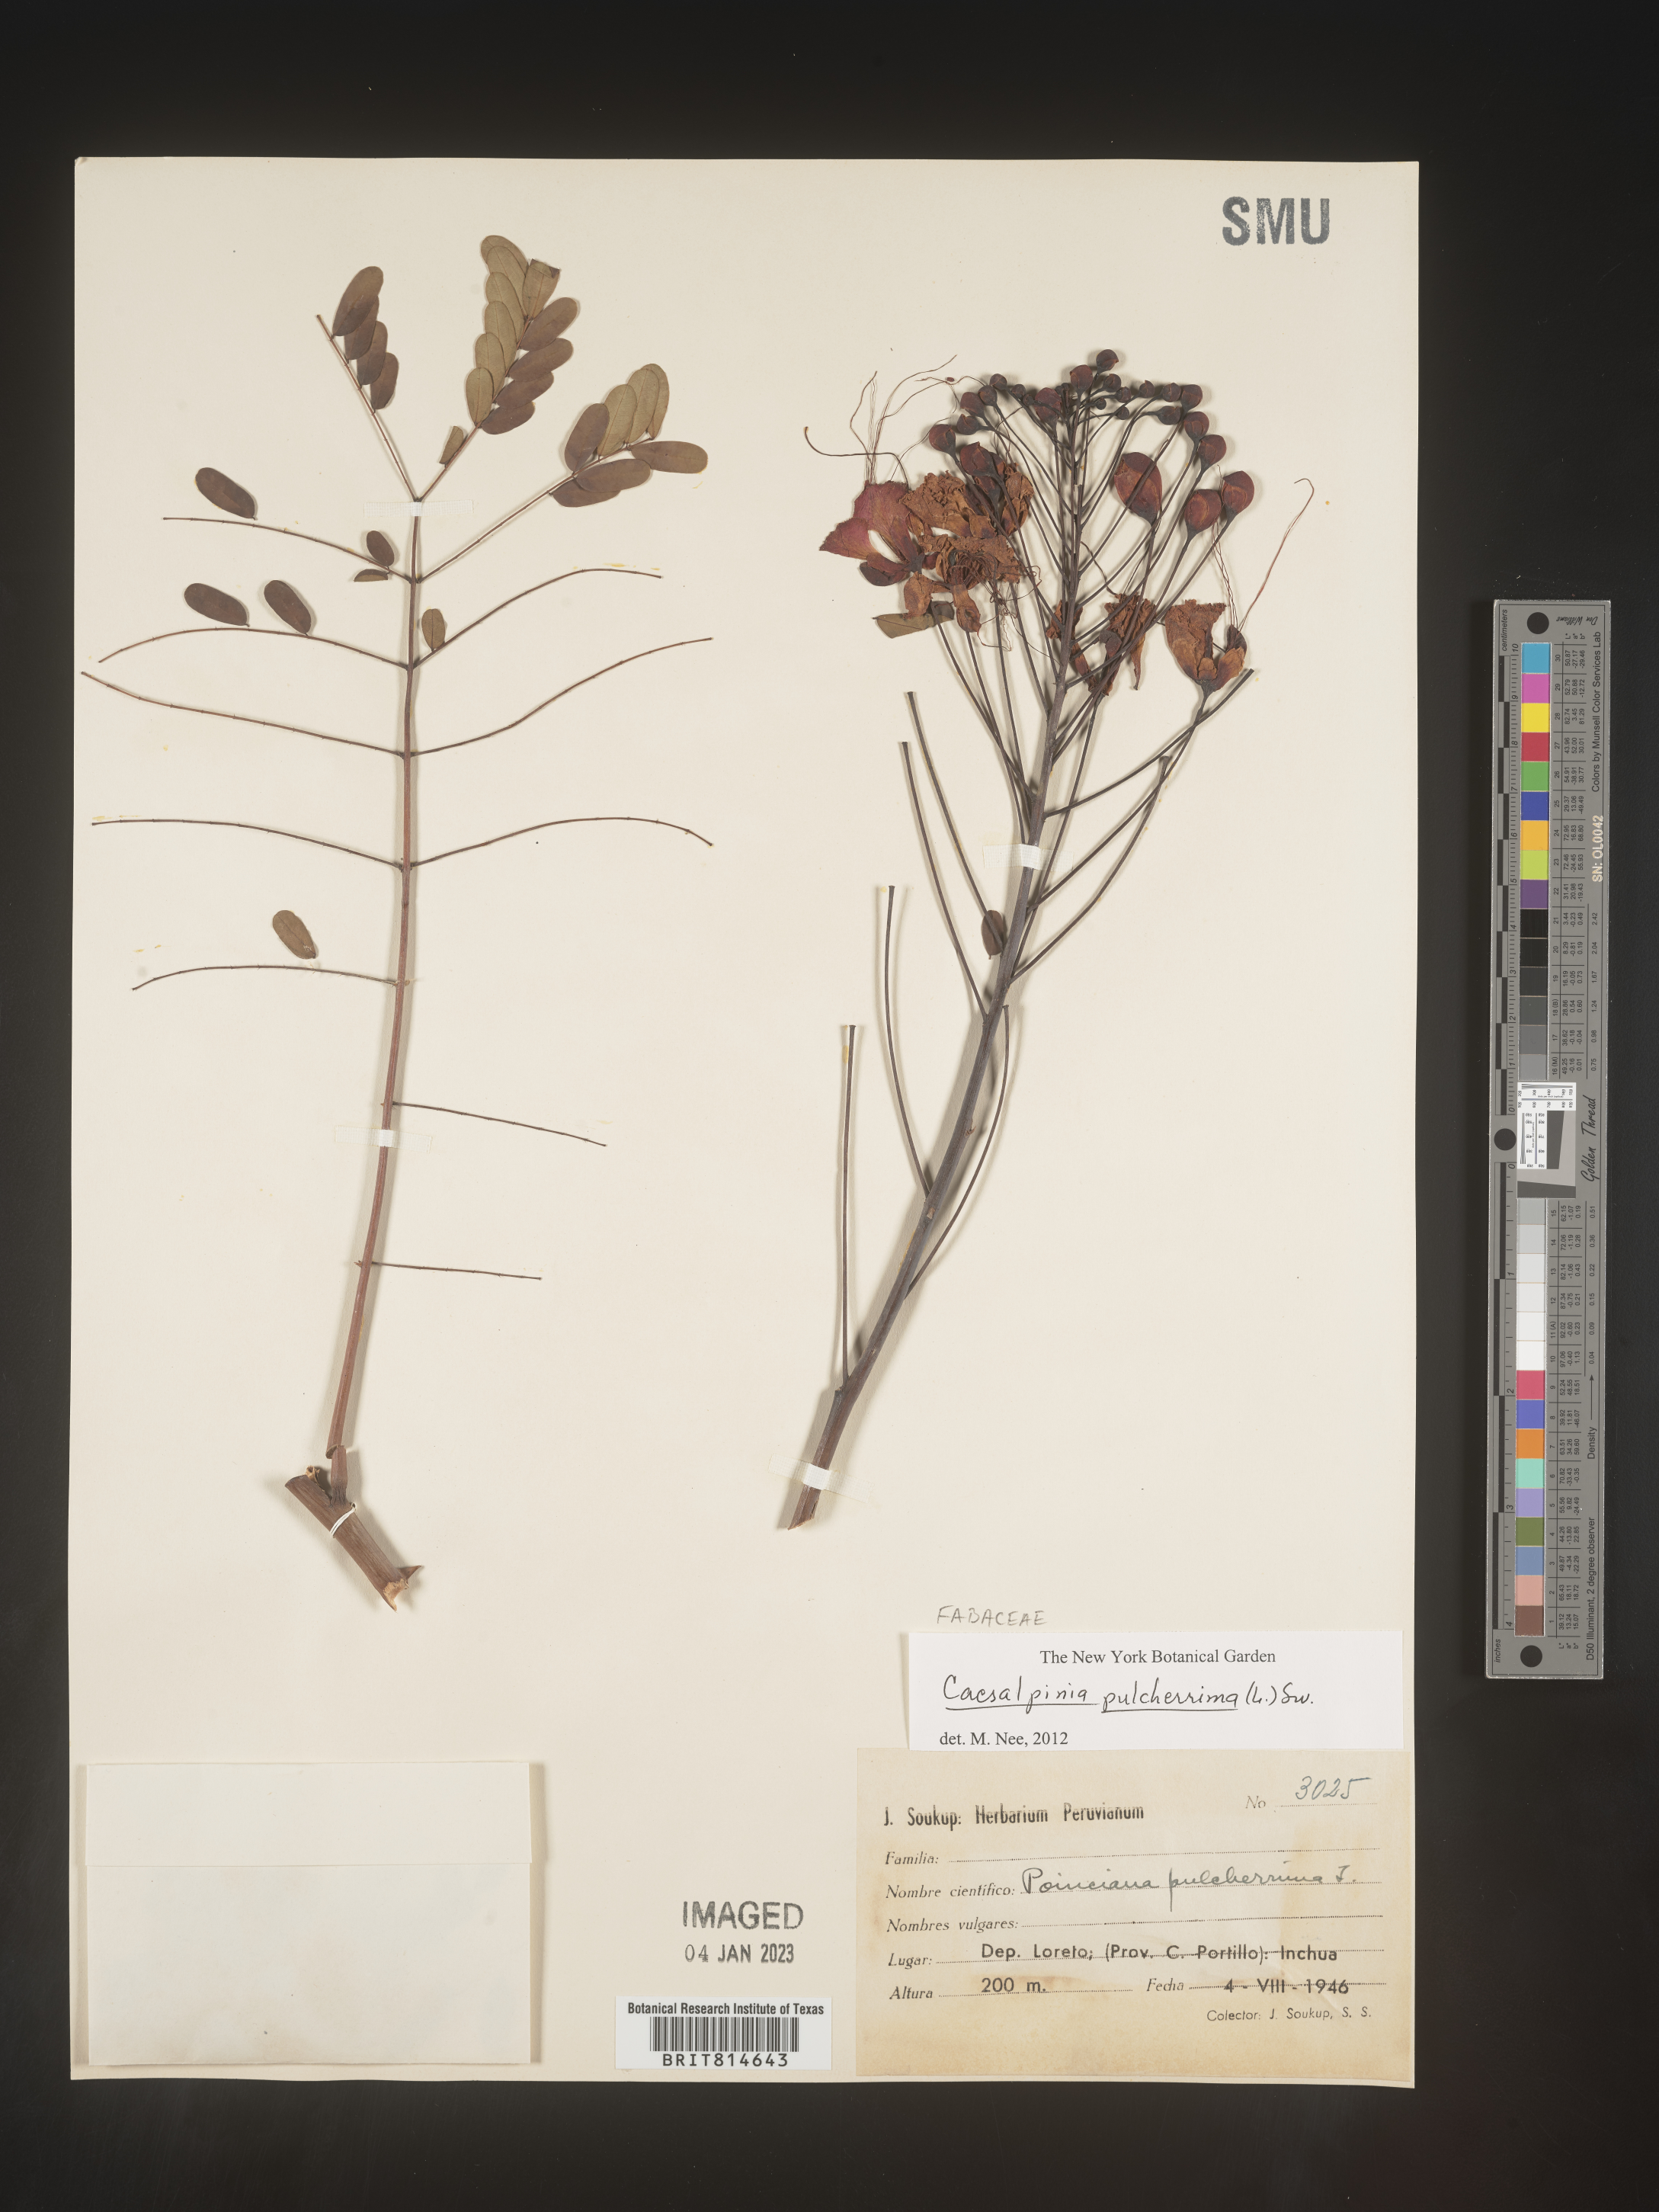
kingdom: Plantae
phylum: Tracheophyta
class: Magnoliopsida
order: Fabales
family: Fabaceae
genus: Caesalpinia
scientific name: Caesalpinia
